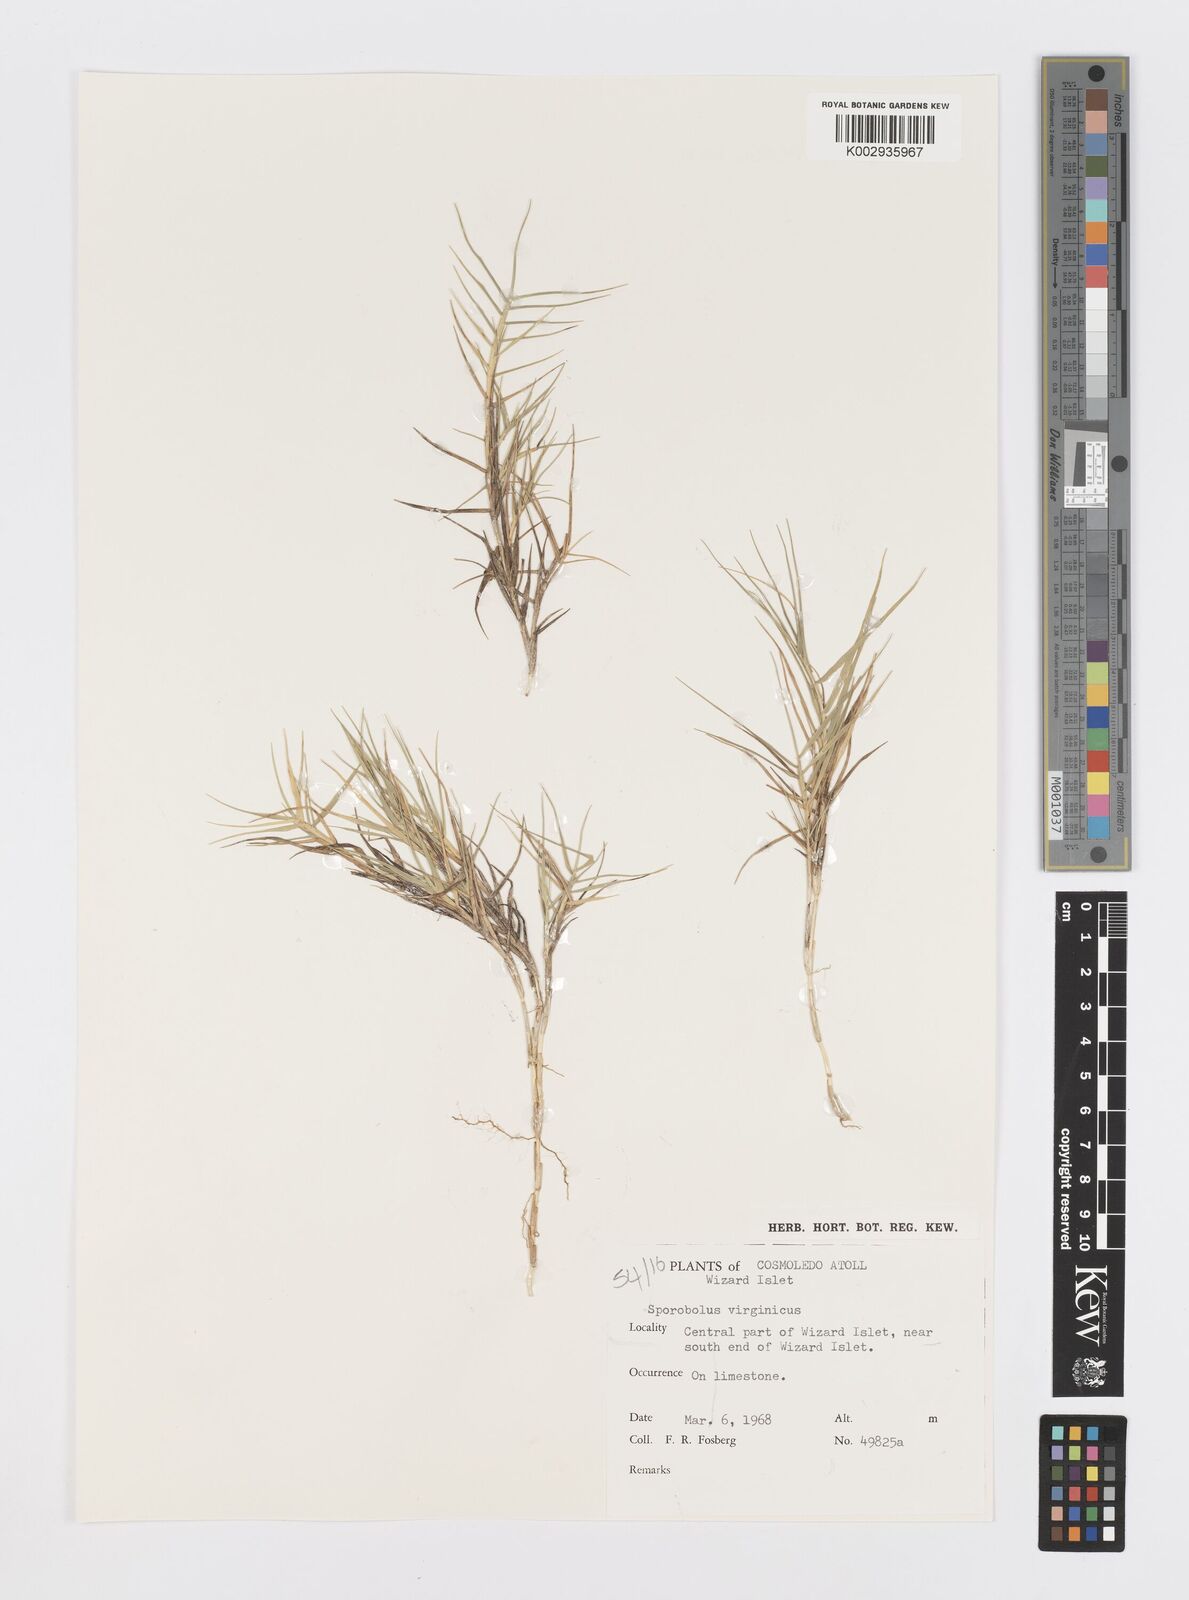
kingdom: Plantae
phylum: Tracheophyta
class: Liliopsida
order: Poales
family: Poaceae
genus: Sporobolus
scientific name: Sporobolus virginicus
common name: Beach dropseed
